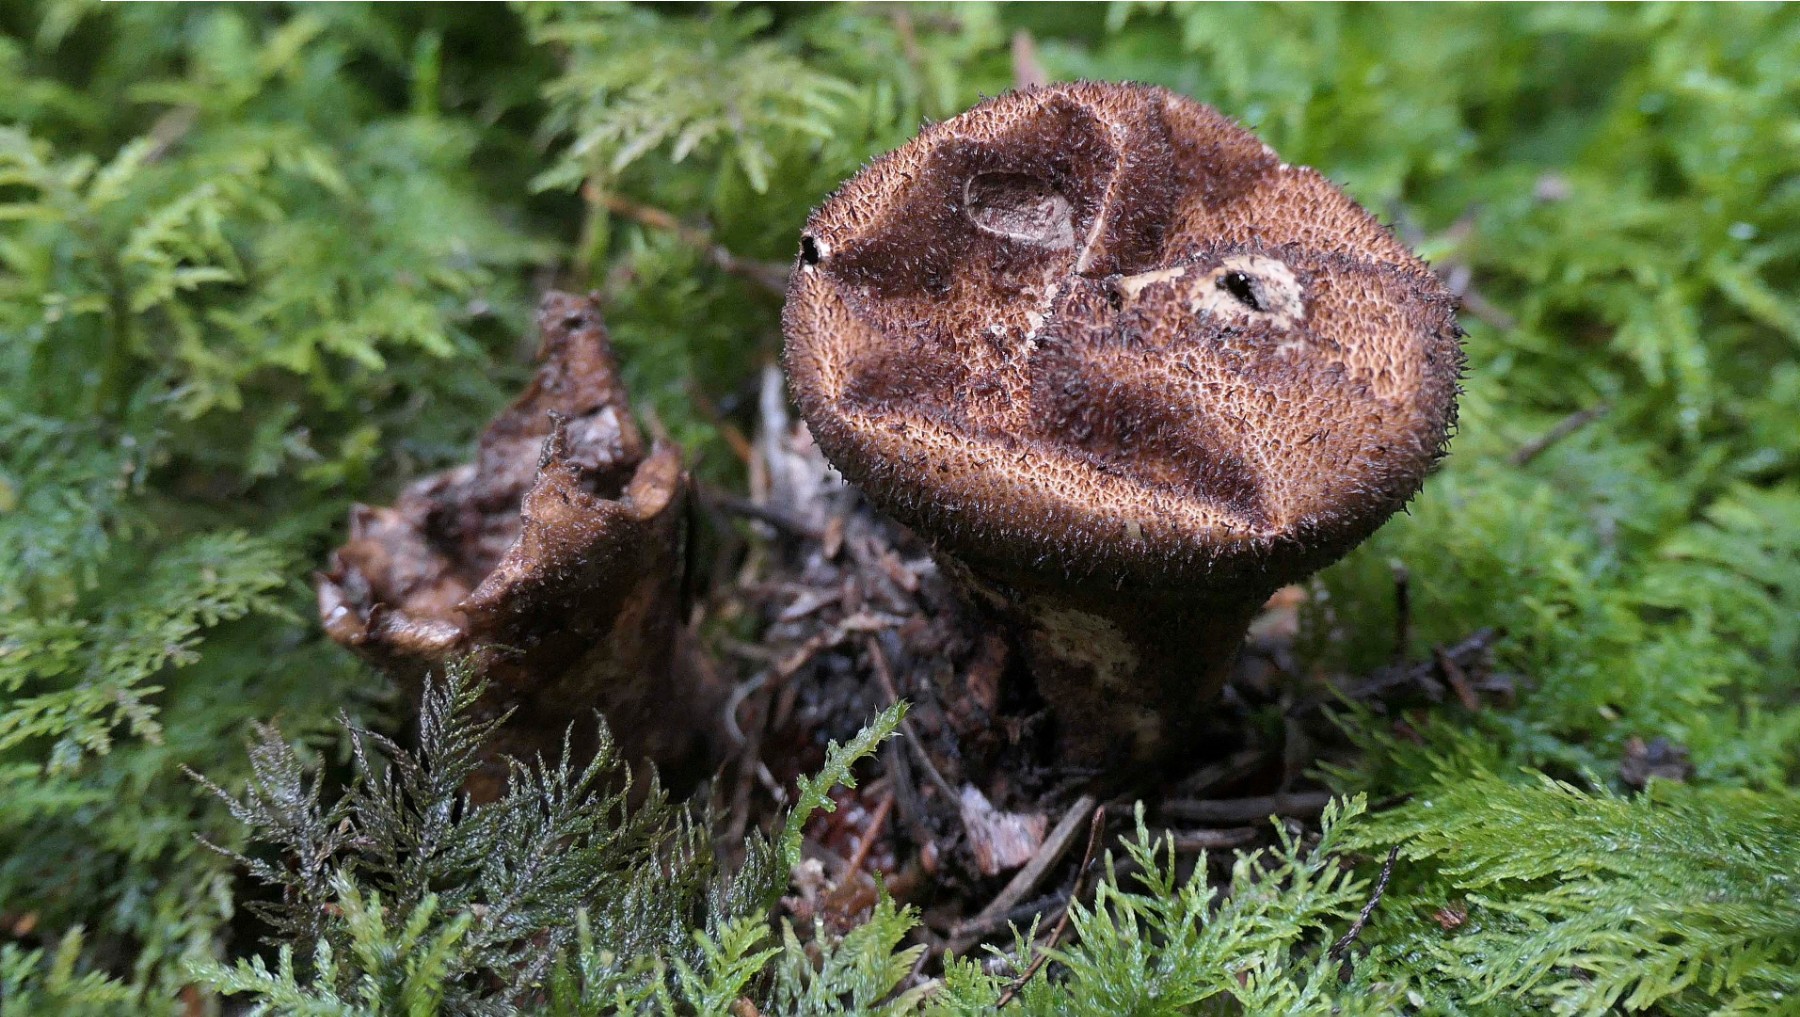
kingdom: Fungi
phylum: Basidiomycota
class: Agaricomycetes
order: Agaricales
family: Lycoperdaceae
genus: Lycoperdon
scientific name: Lycoperdon umbrinum
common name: umbrabrun støvbold
